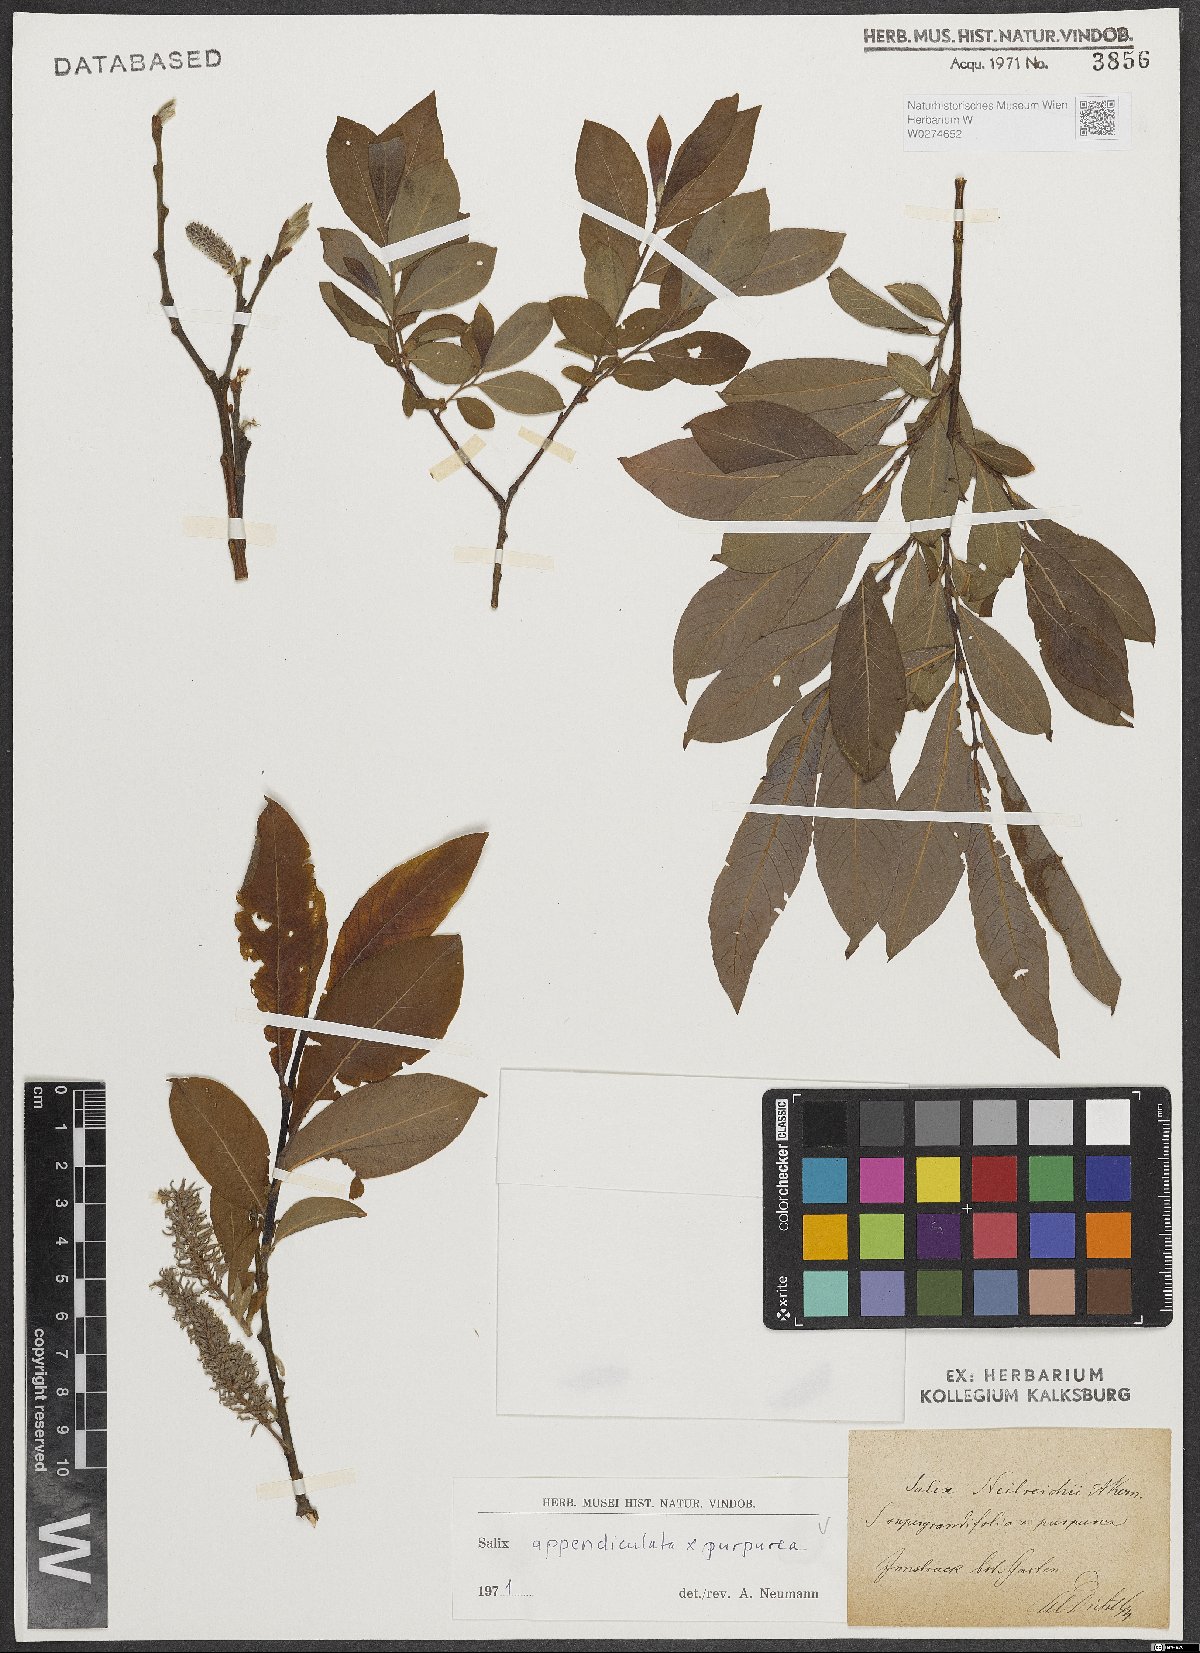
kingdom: Plantae
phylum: Tracheophyta
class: Magnoliopsida
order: Malpighiales
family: Salicaceae
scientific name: Salicaceae
